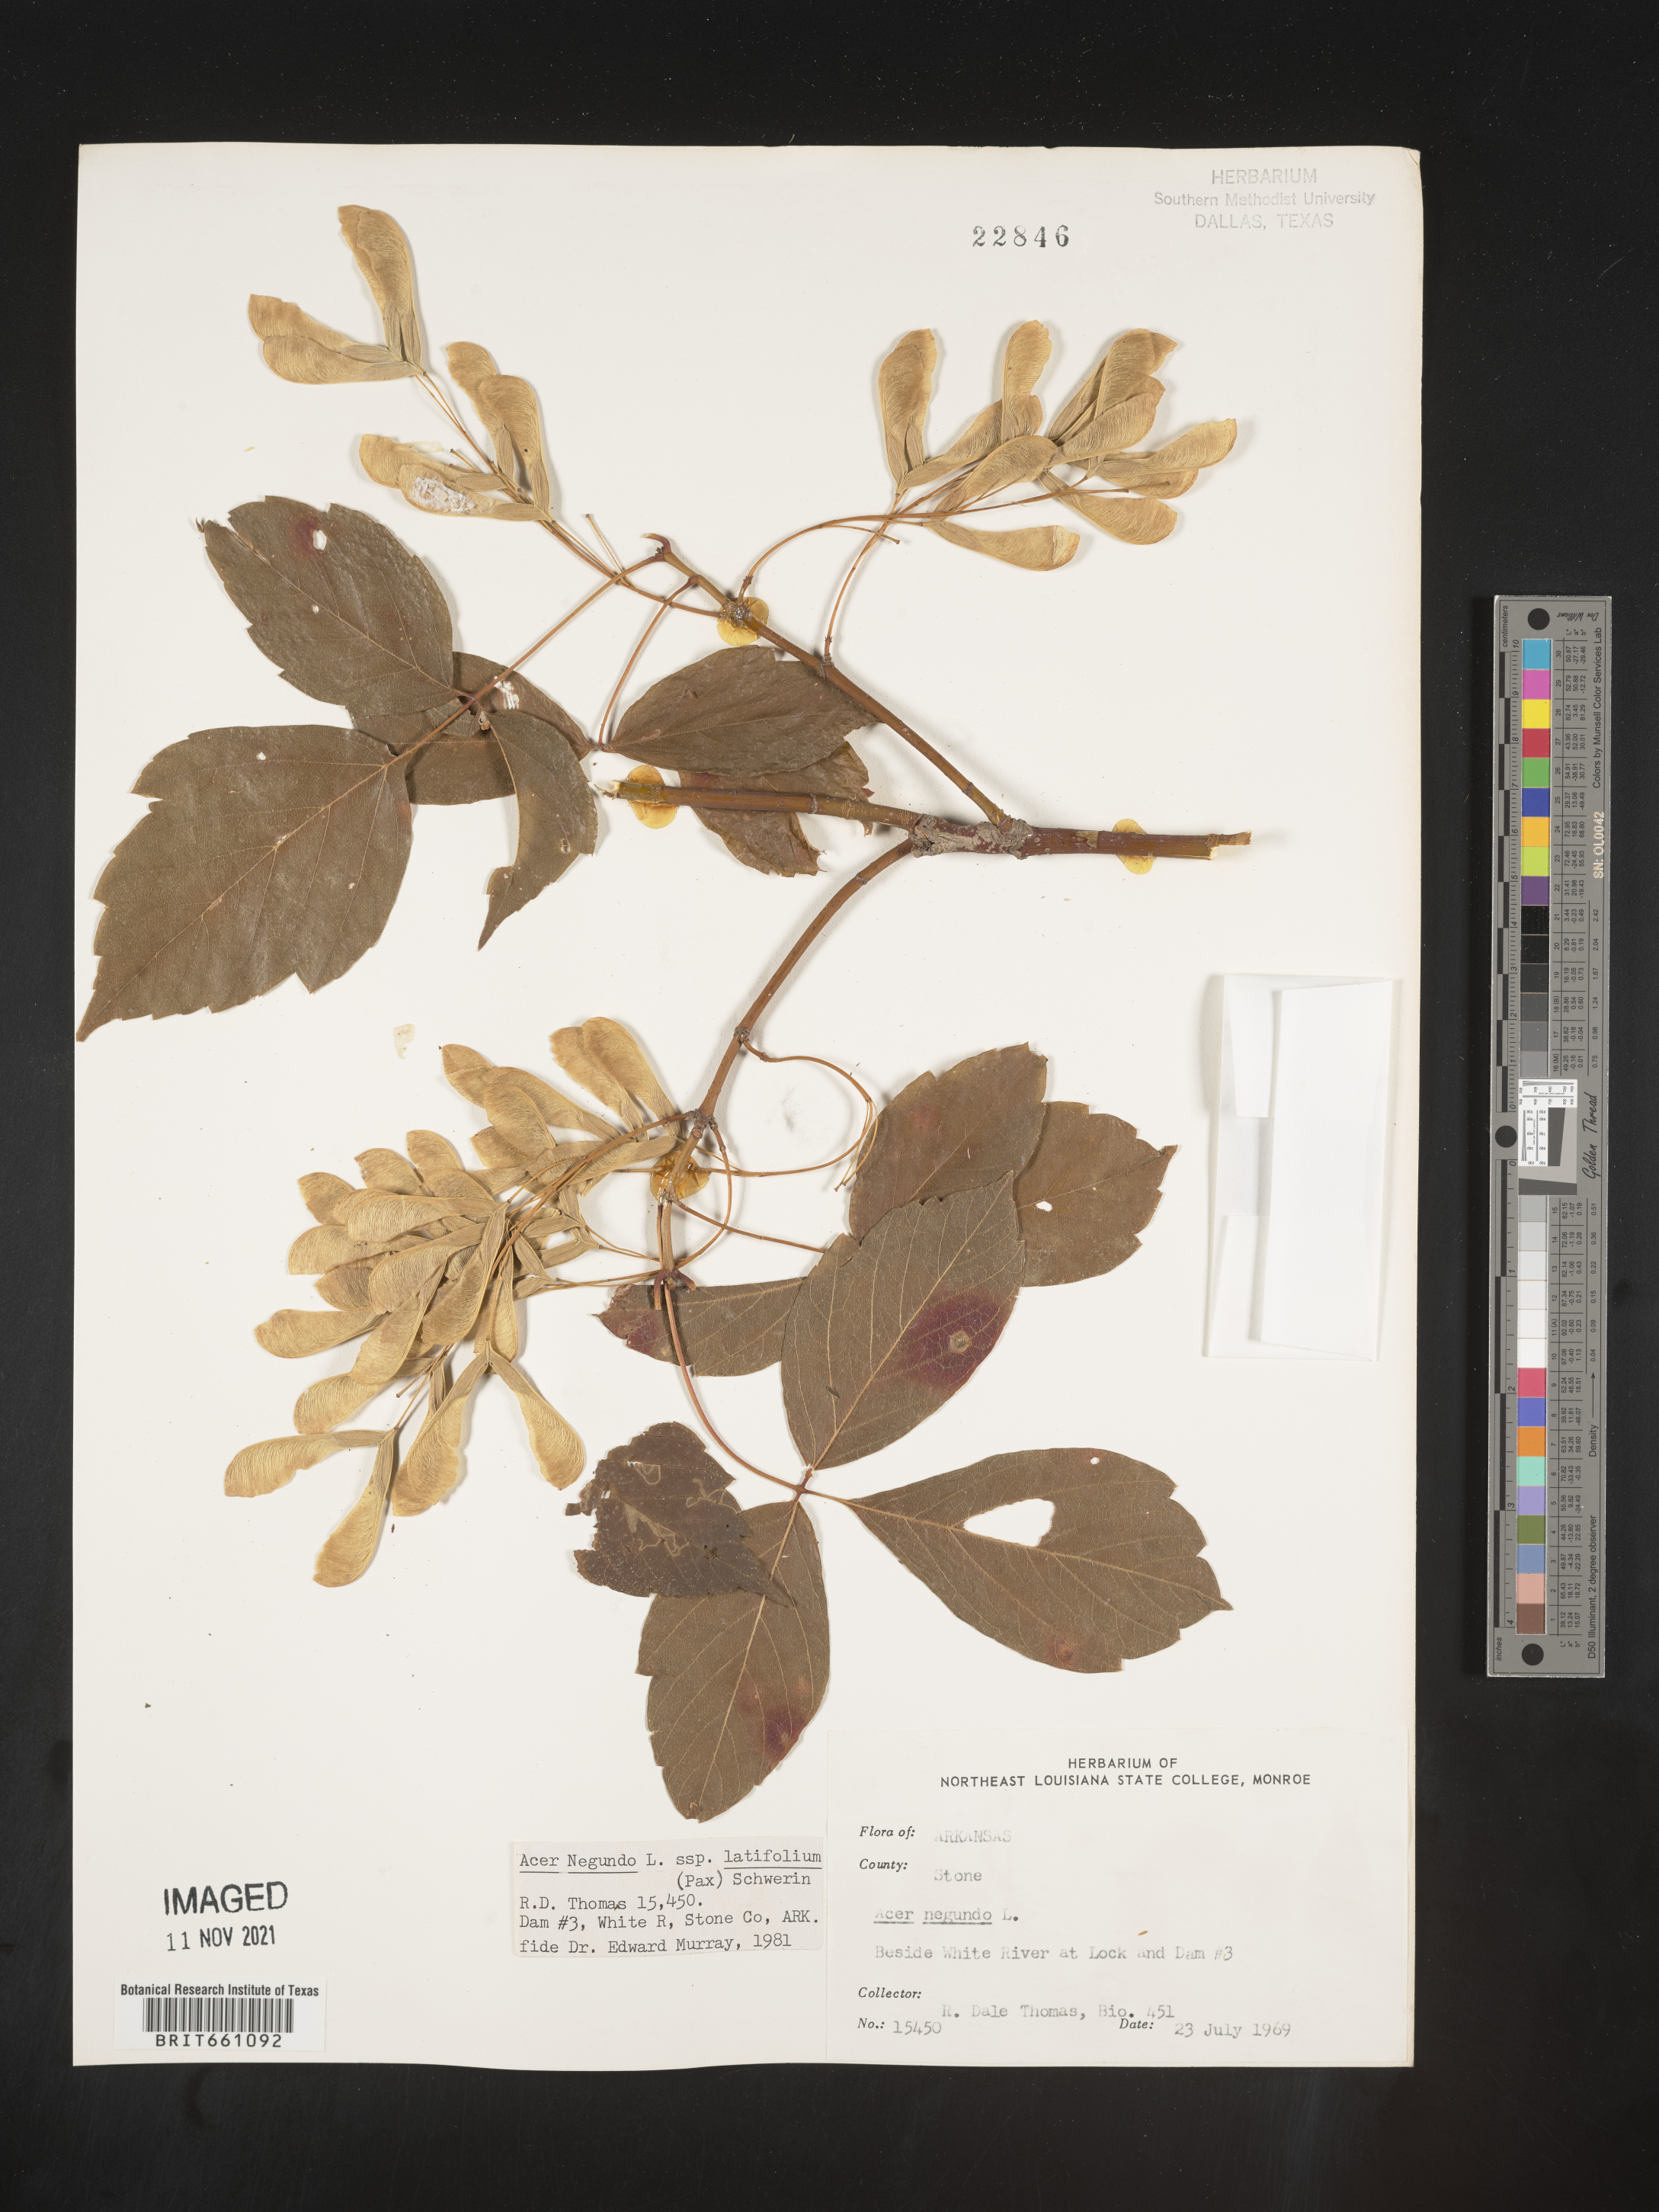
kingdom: Plantae
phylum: Tracheophyta
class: Magnoliopsida
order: Sapindales
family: Sapindaceae
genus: Acer
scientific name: Acer negundo
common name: Ashleaf maple
